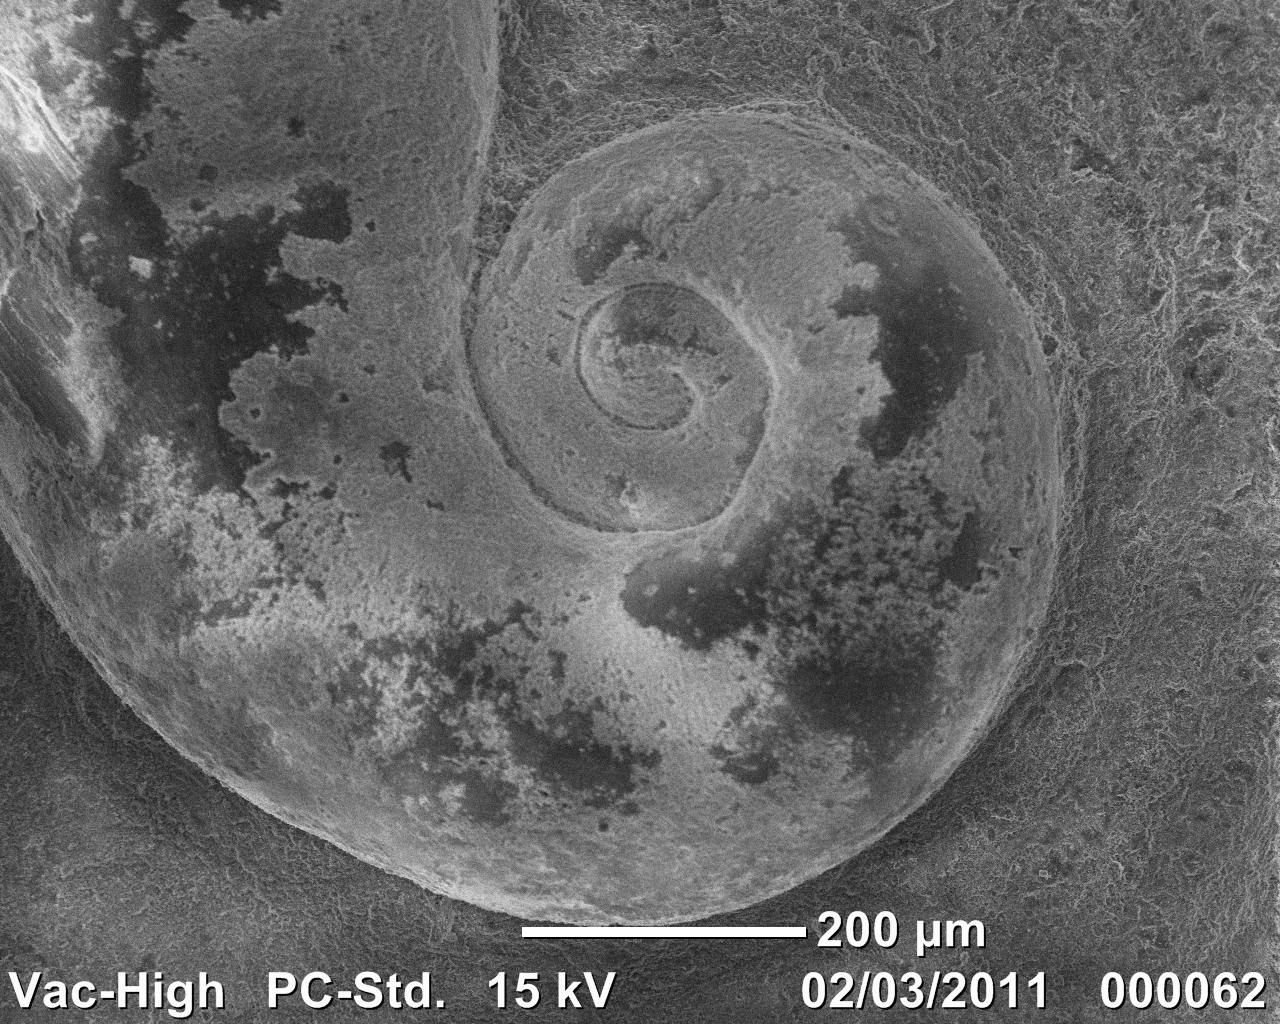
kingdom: Animalia
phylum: Mollusca
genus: Simoniceras
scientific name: Simoniceras
